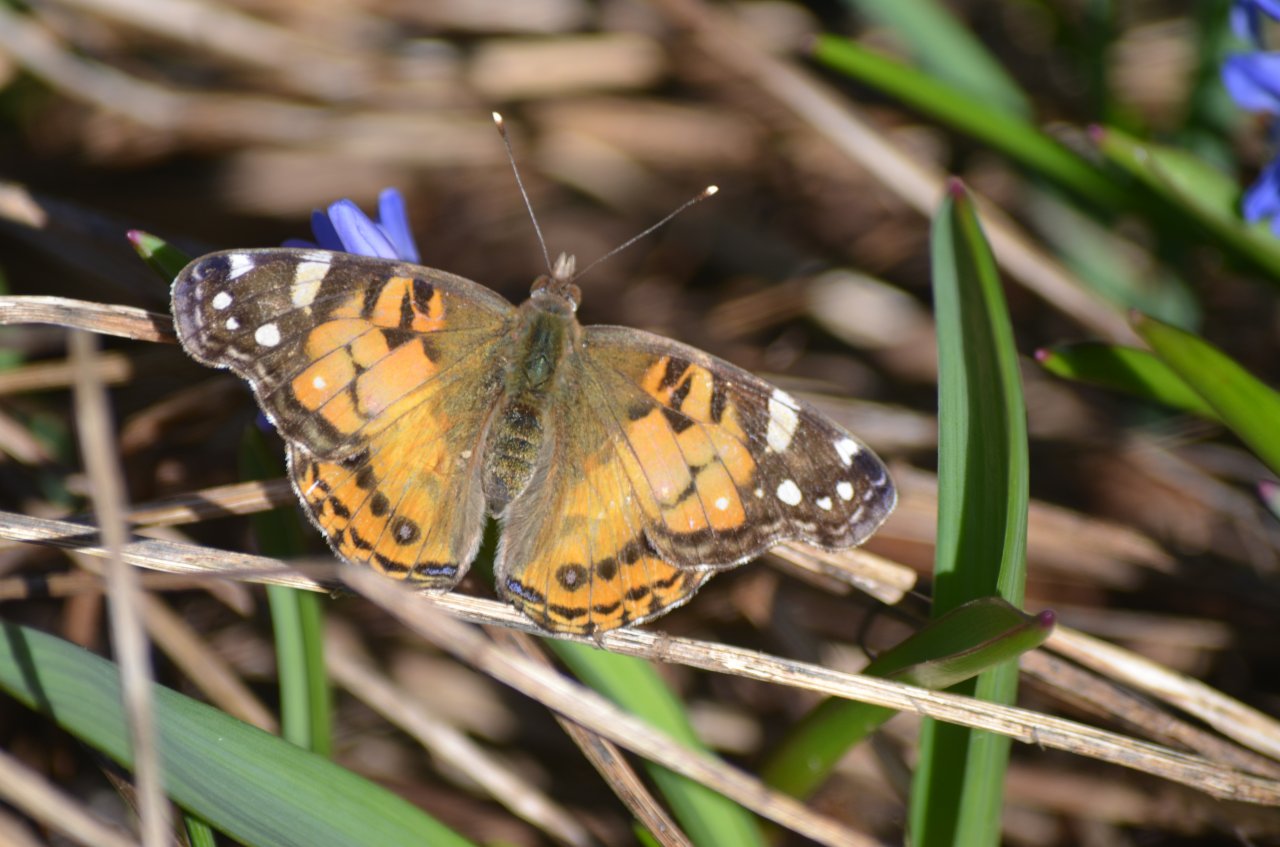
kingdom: Animalia
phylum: Arthropoda
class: Insecta
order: Lepidoptera
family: Nymphalidae
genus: Vanessa
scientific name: Vanessa virginiensis
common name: American Lady
